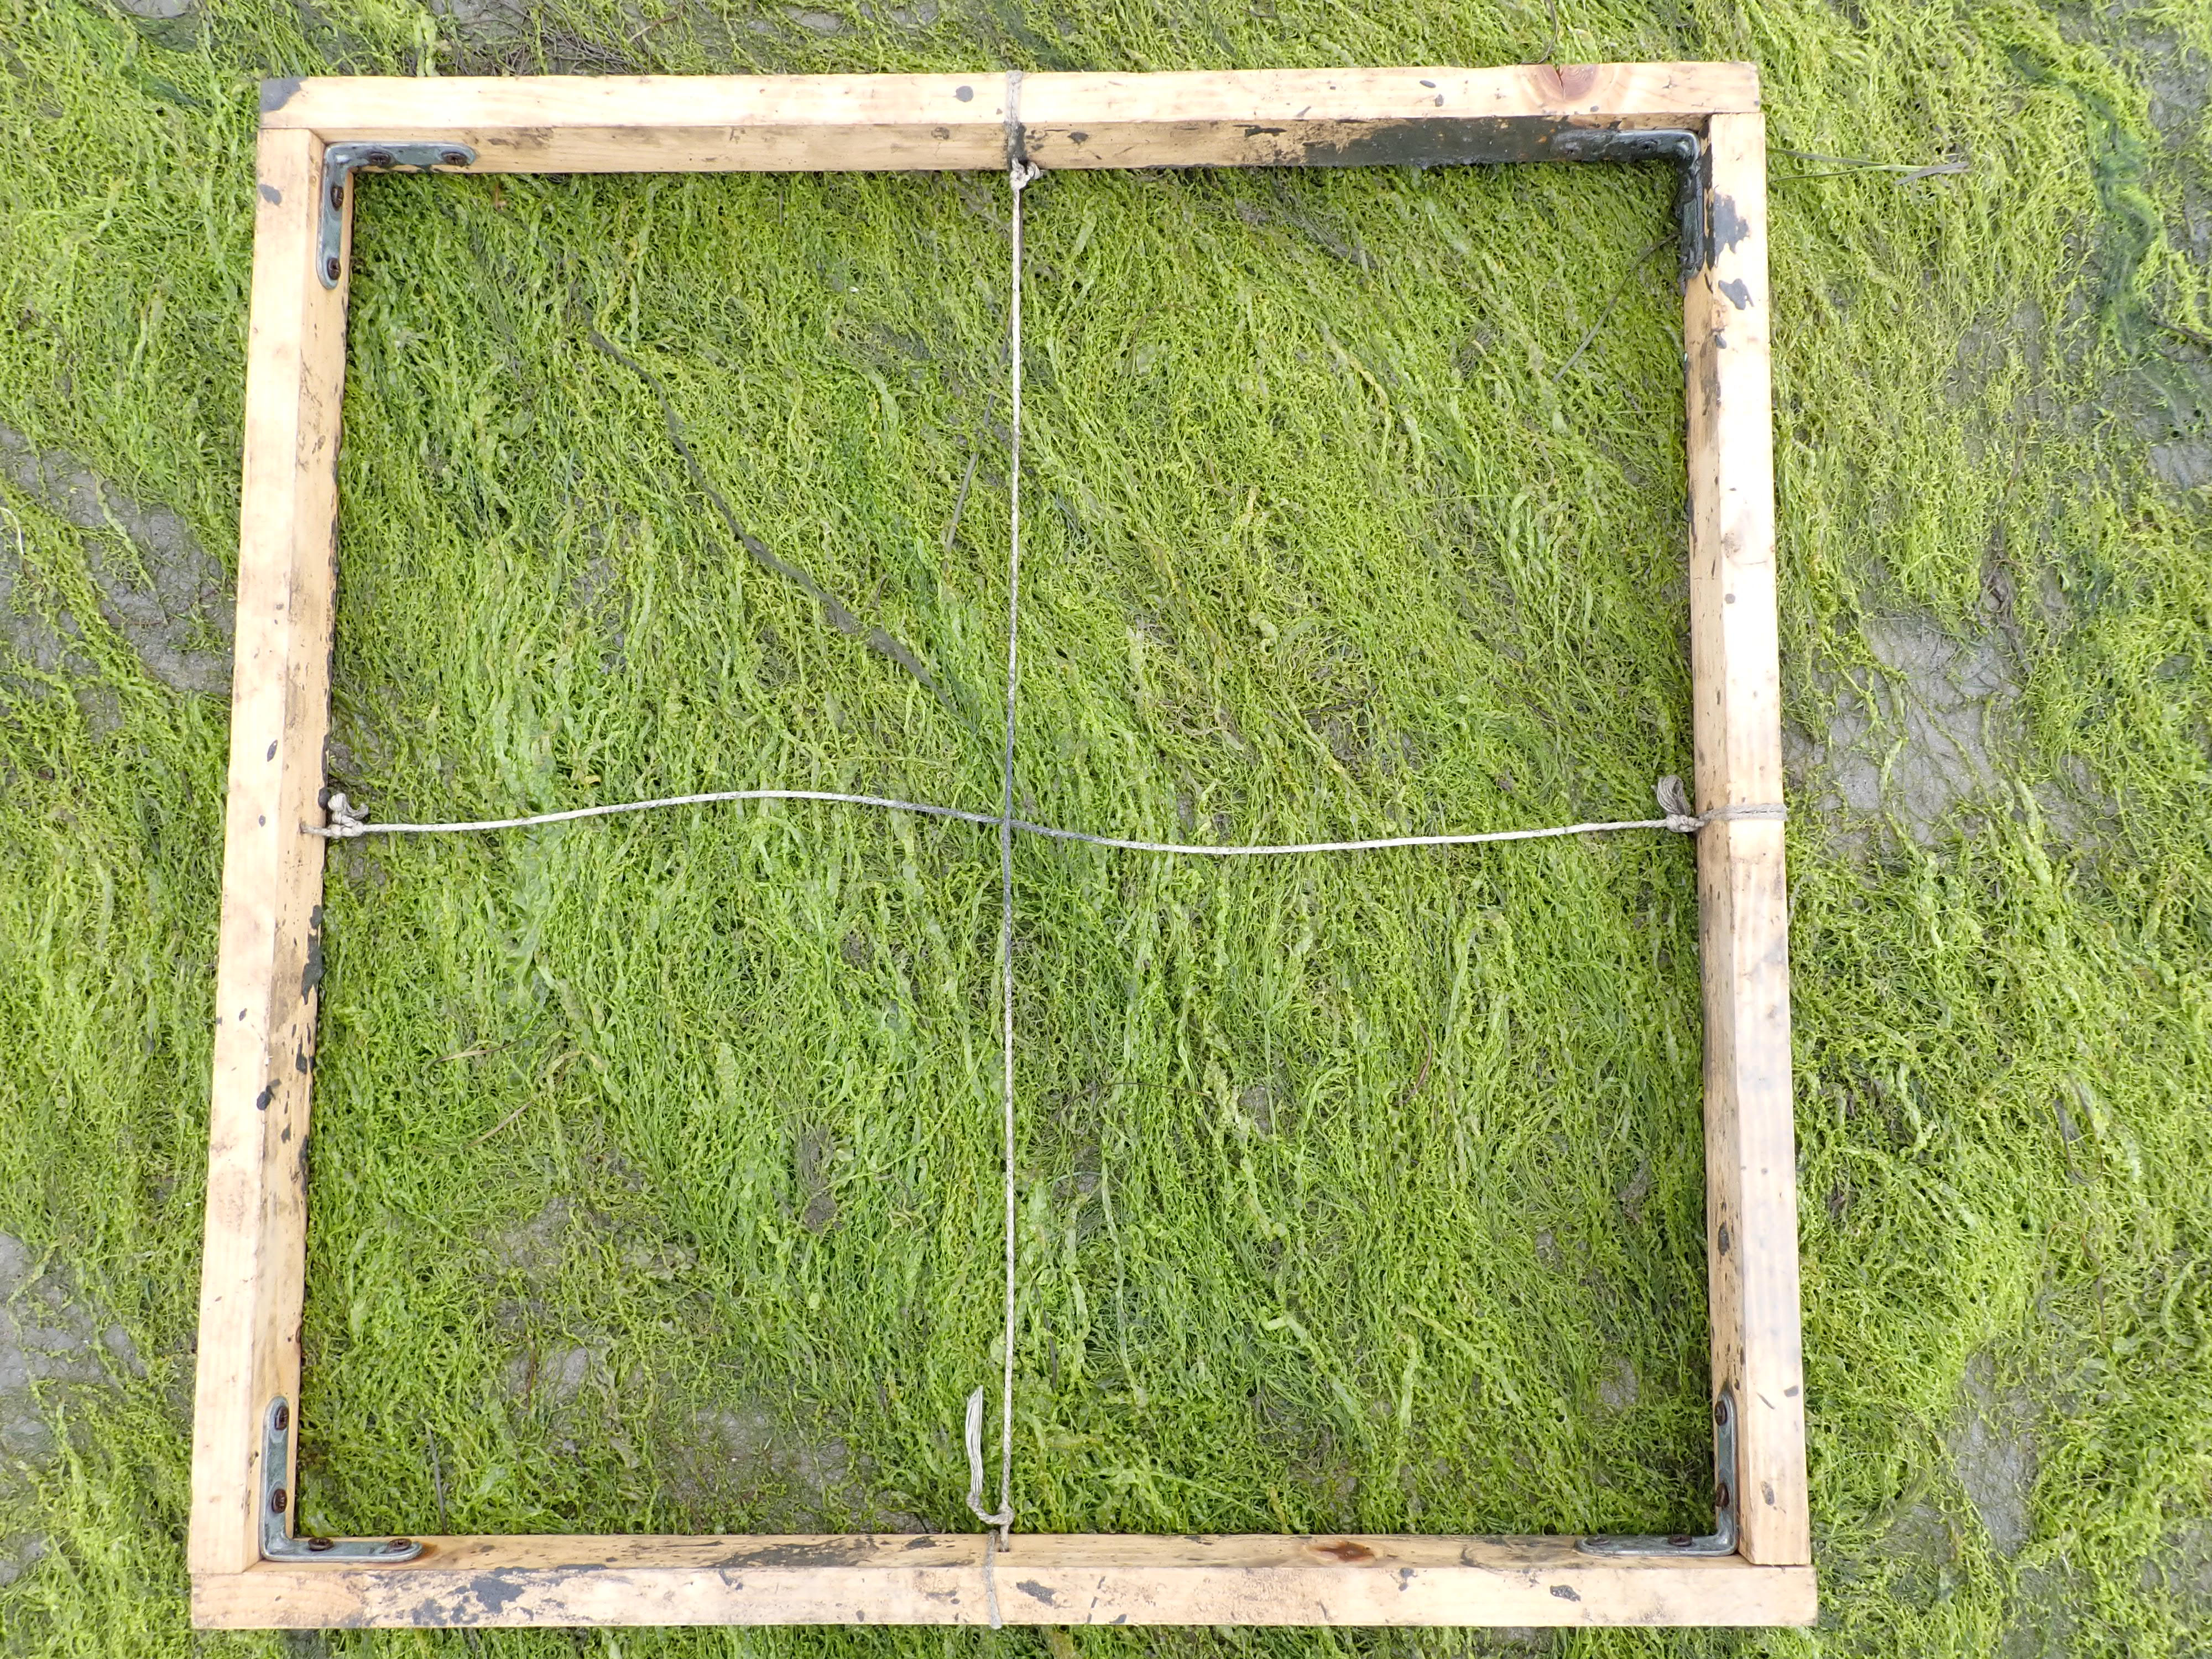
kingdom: Plantae
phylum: Chlorophyta
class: Ulvophyceae
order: Ulvales
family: Ulvaceae
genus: Ulva
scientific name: Ulva
